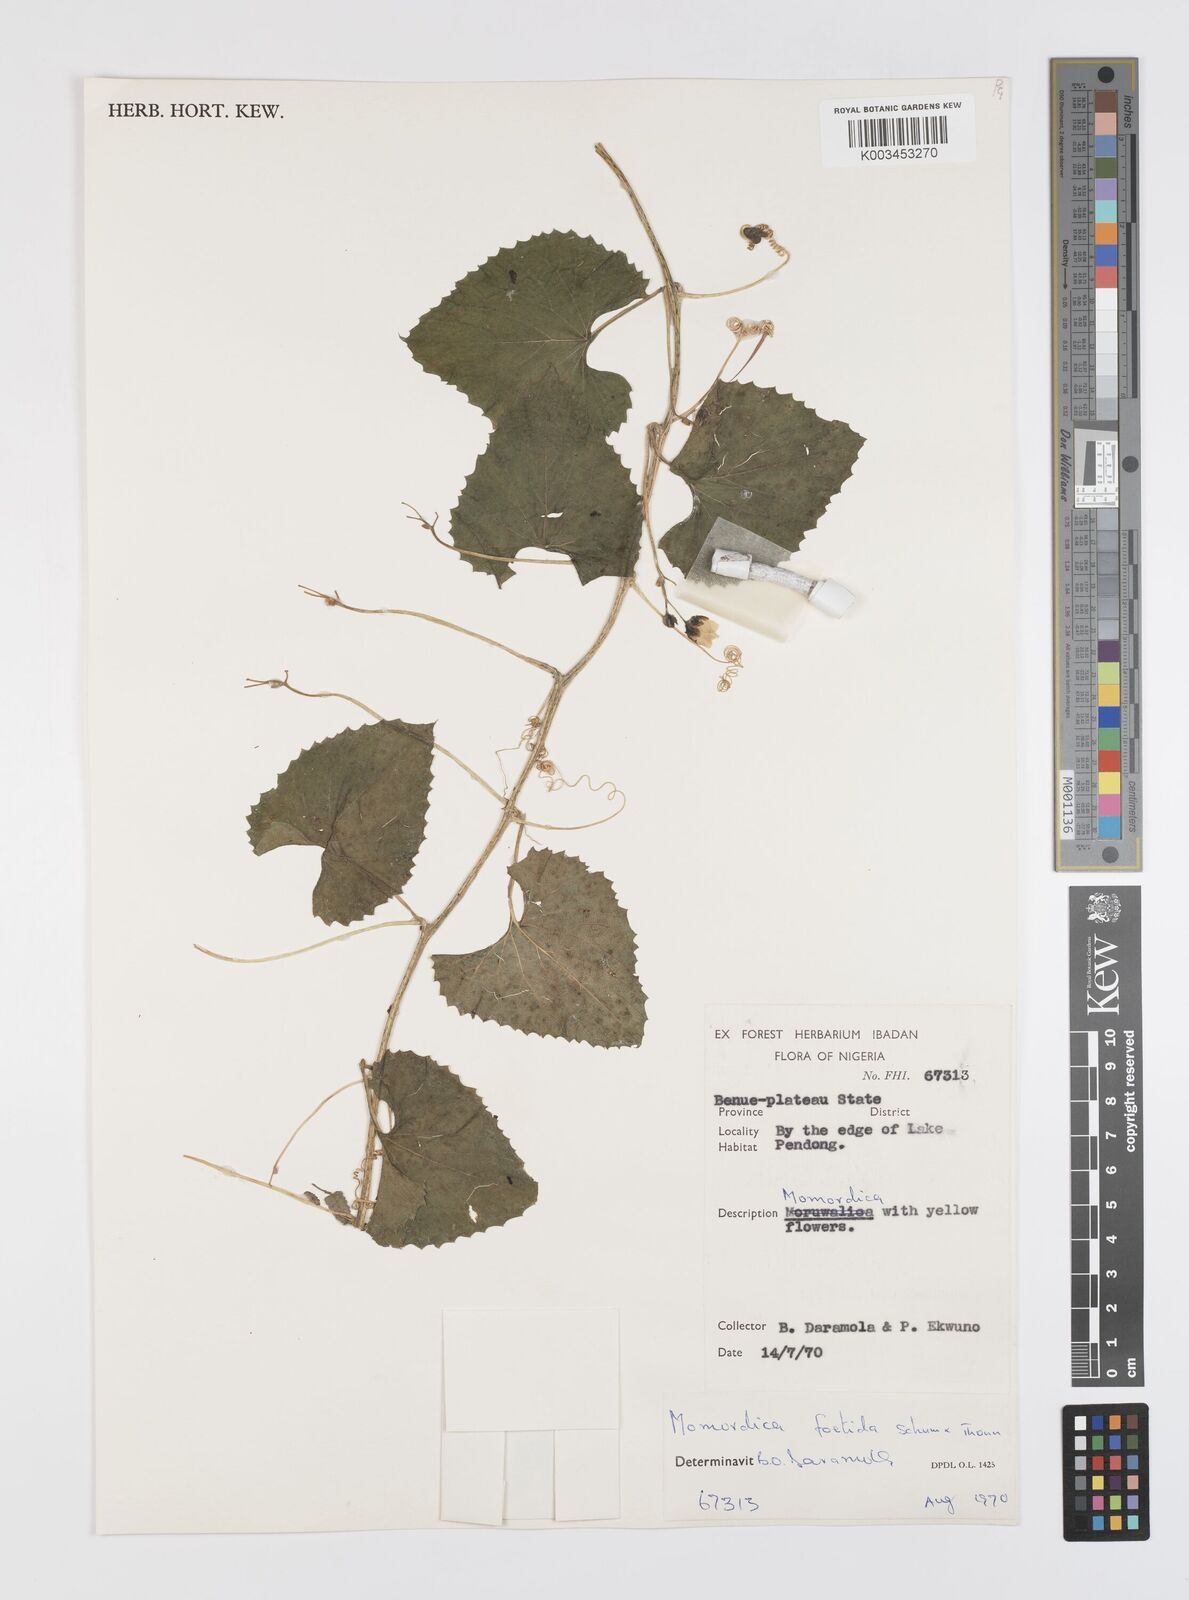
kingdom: Plantae
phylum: Tracheophyta
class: Magnoliopsida
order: Cucurbitales
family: Cucurbitaceae
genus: Momordica
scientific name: Momordica foetida
